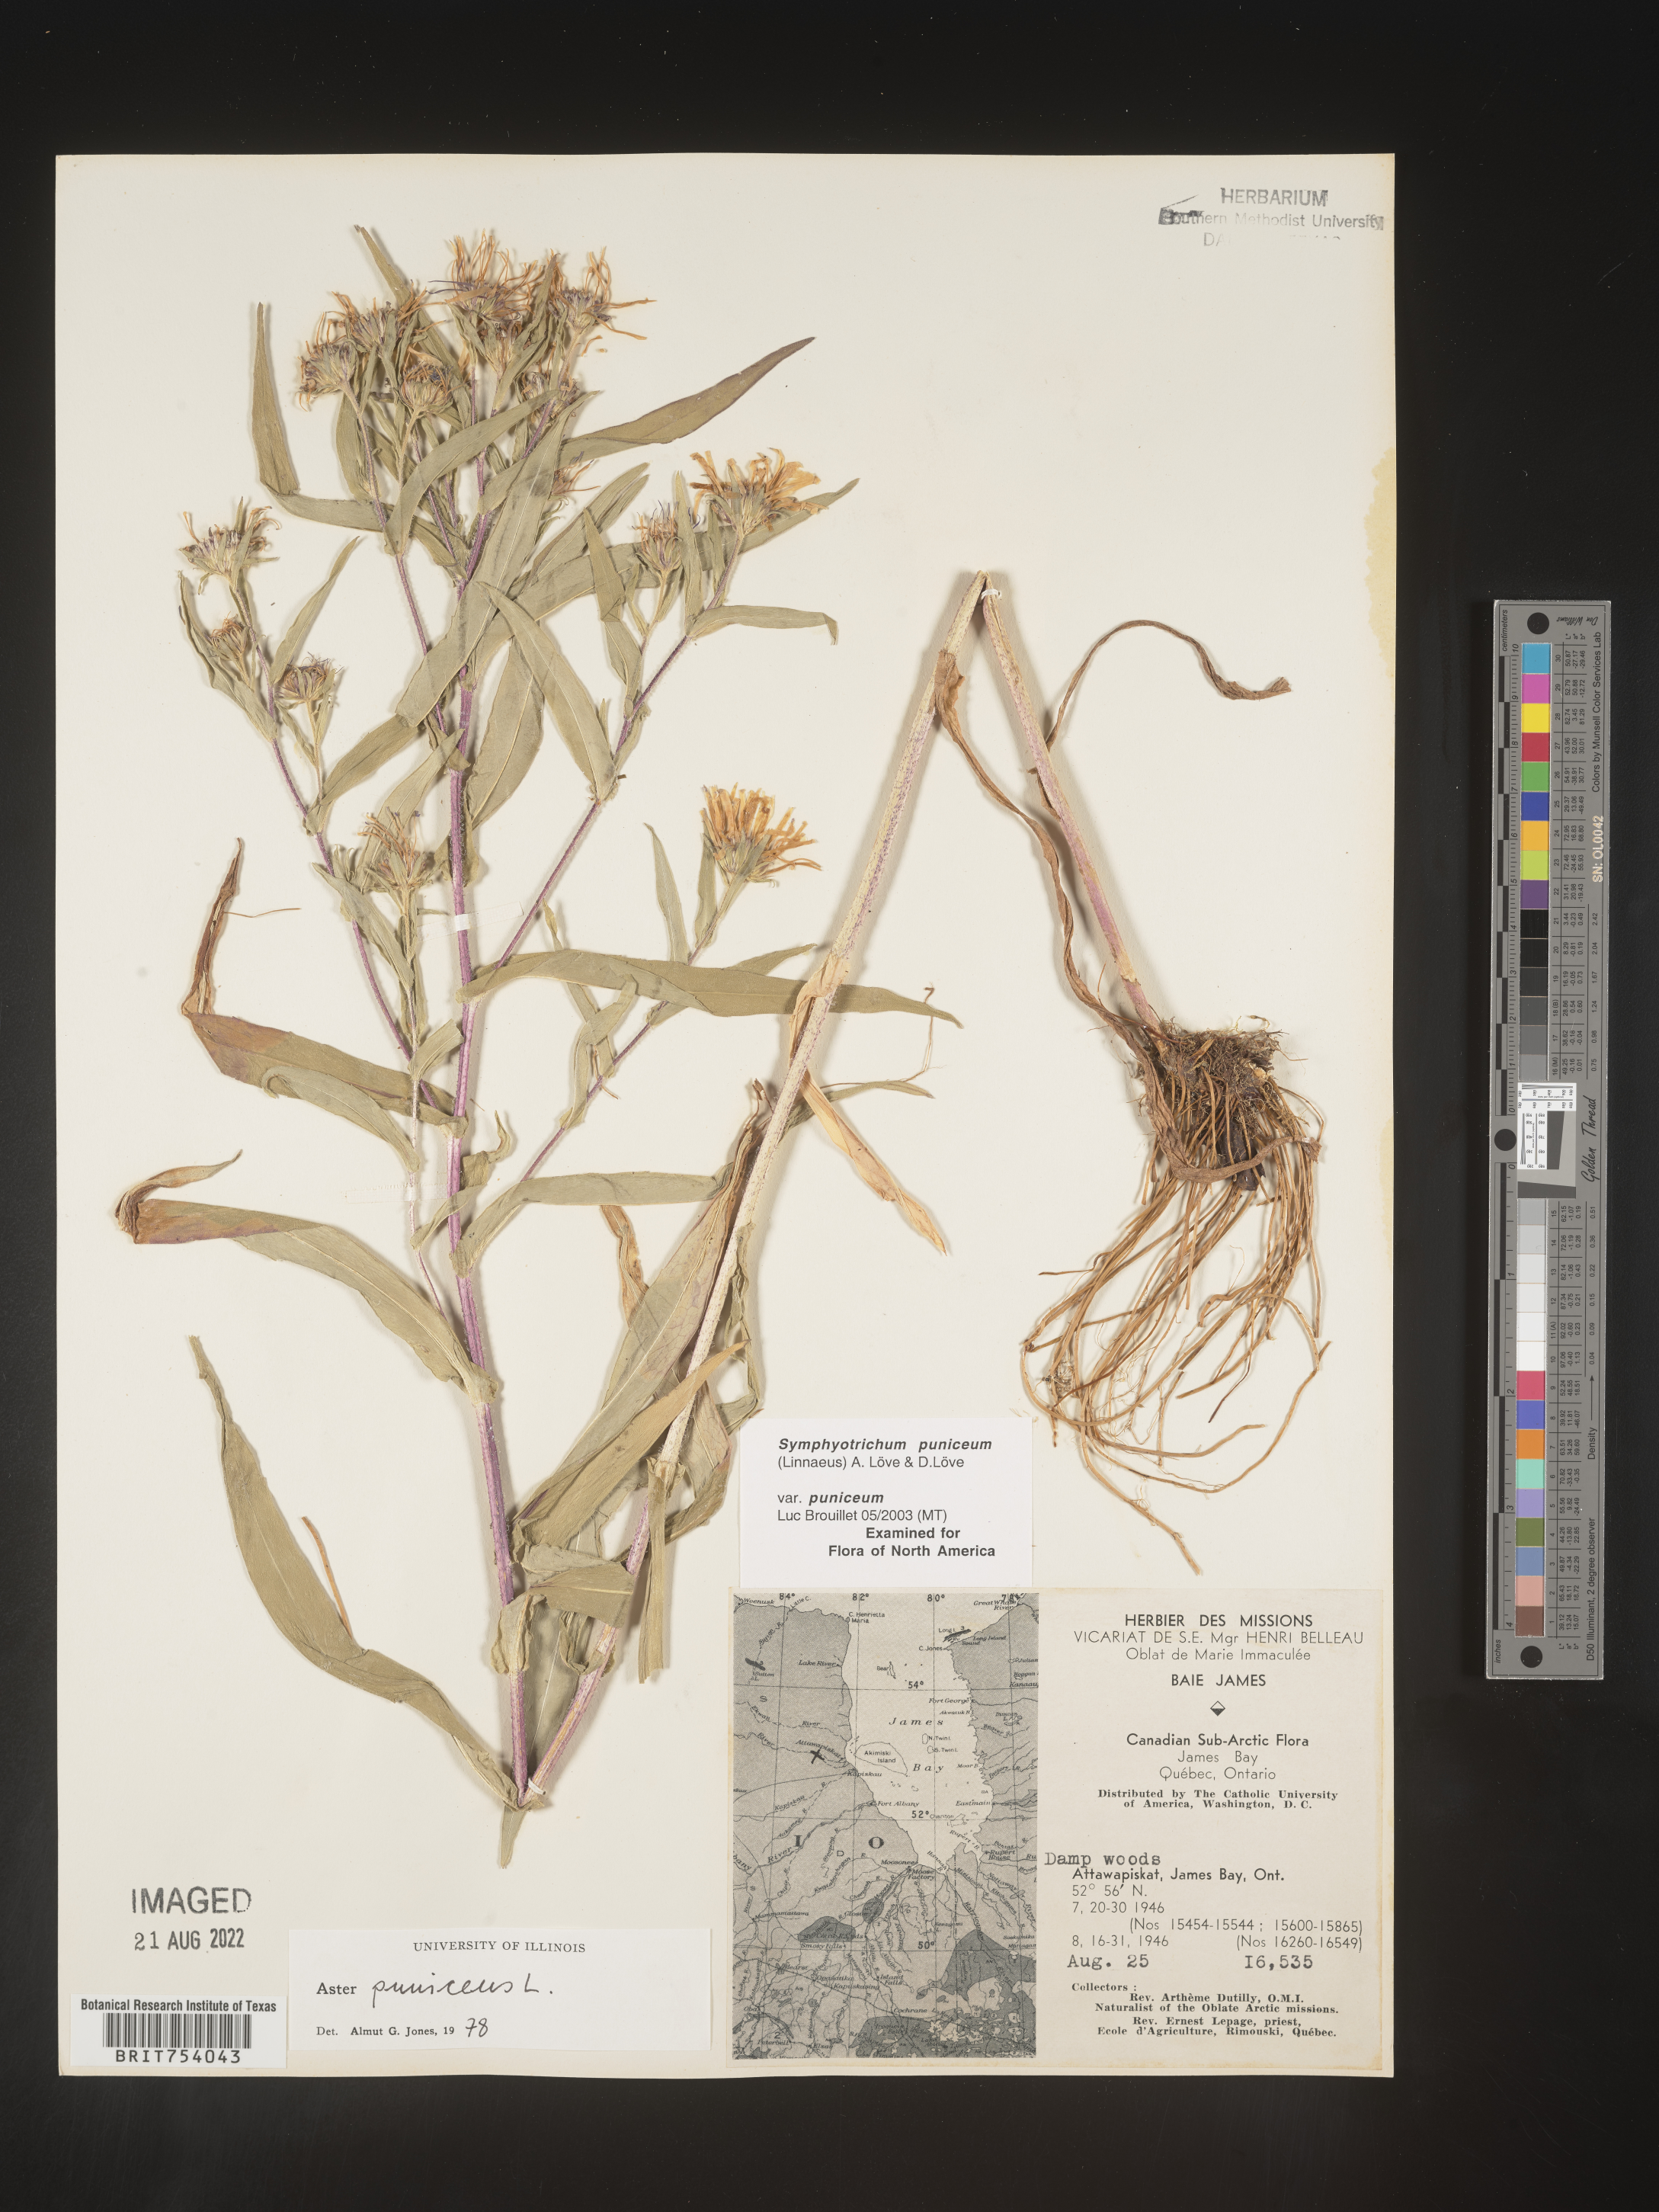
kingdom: Plantae
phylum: Tracheophyta
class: Magnoliopsida
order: Asterales
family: Asteraceae
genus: Symphyotrichum
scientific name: Symphyotrichum puniceum
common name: Bog aster
